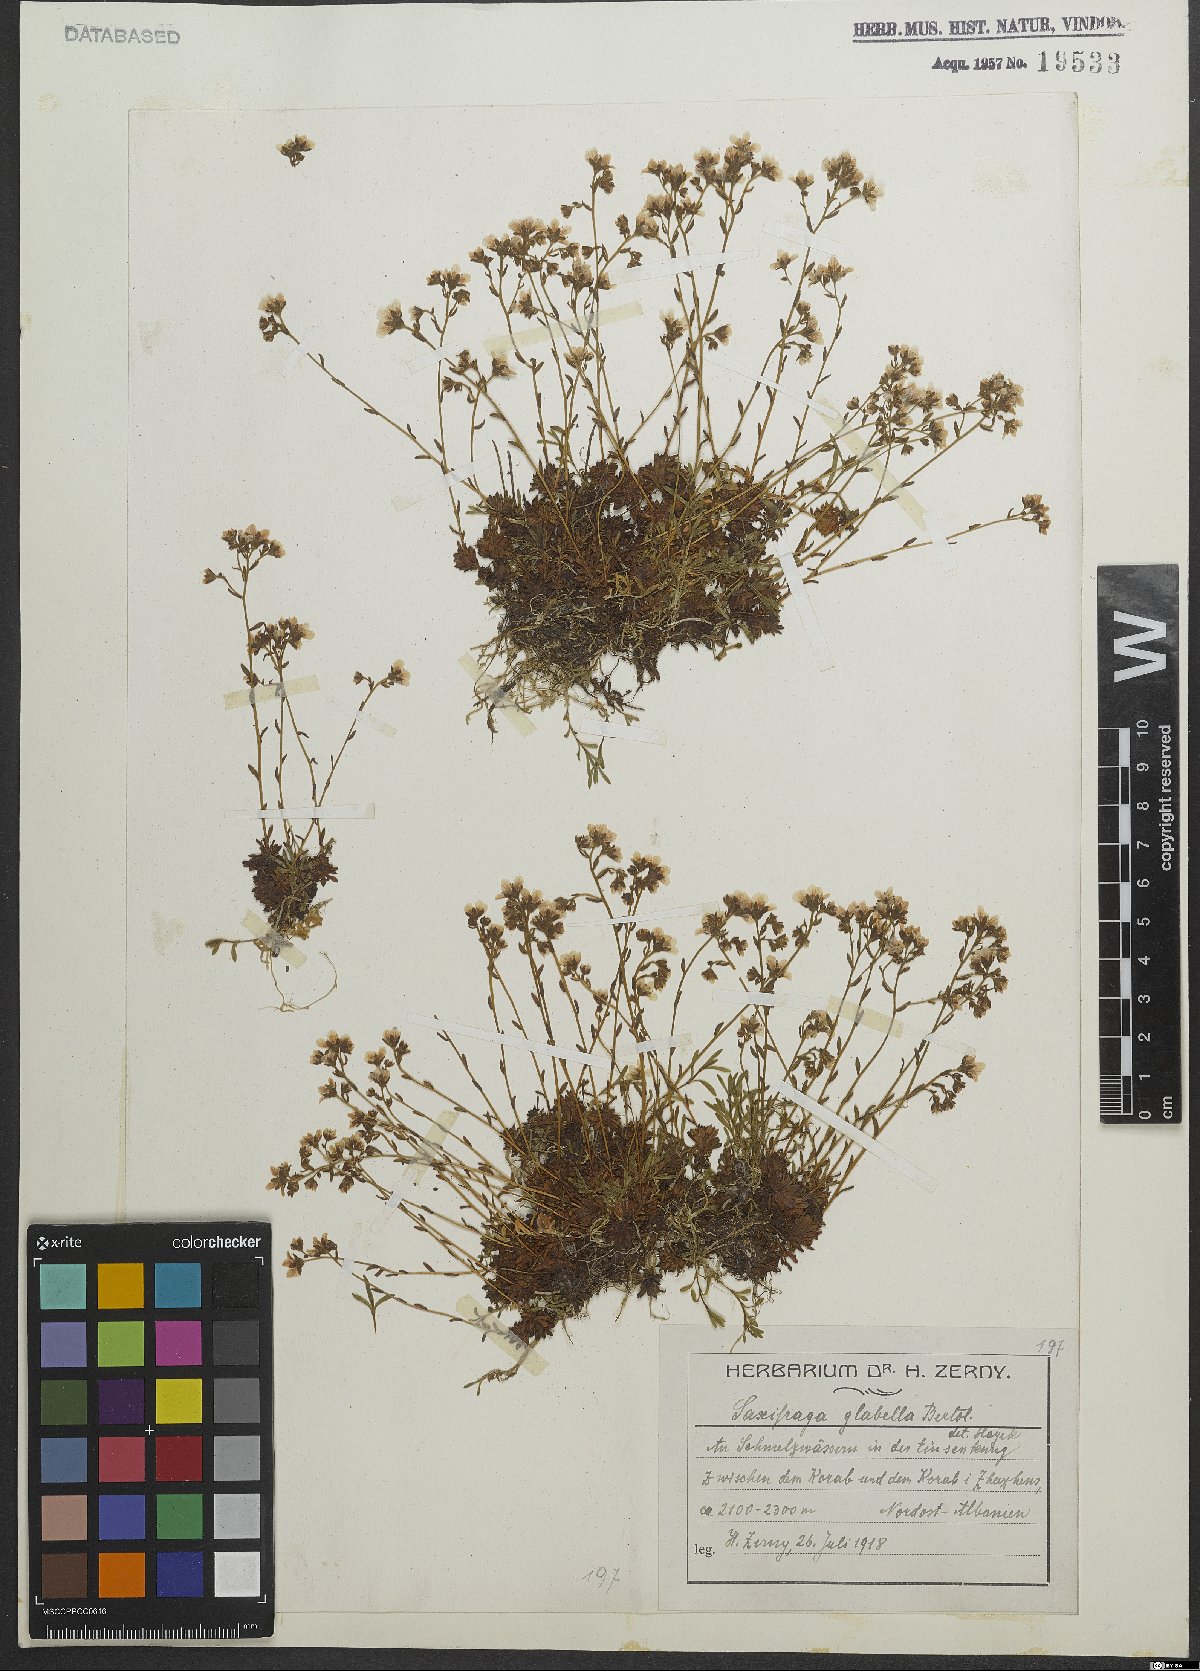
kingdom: Plantae
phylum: Tracheophyta
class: Magnoliopsida
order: Saxifragales
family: Saxifragaceae
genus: Saxifraga
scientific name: Saxifraga glabella
